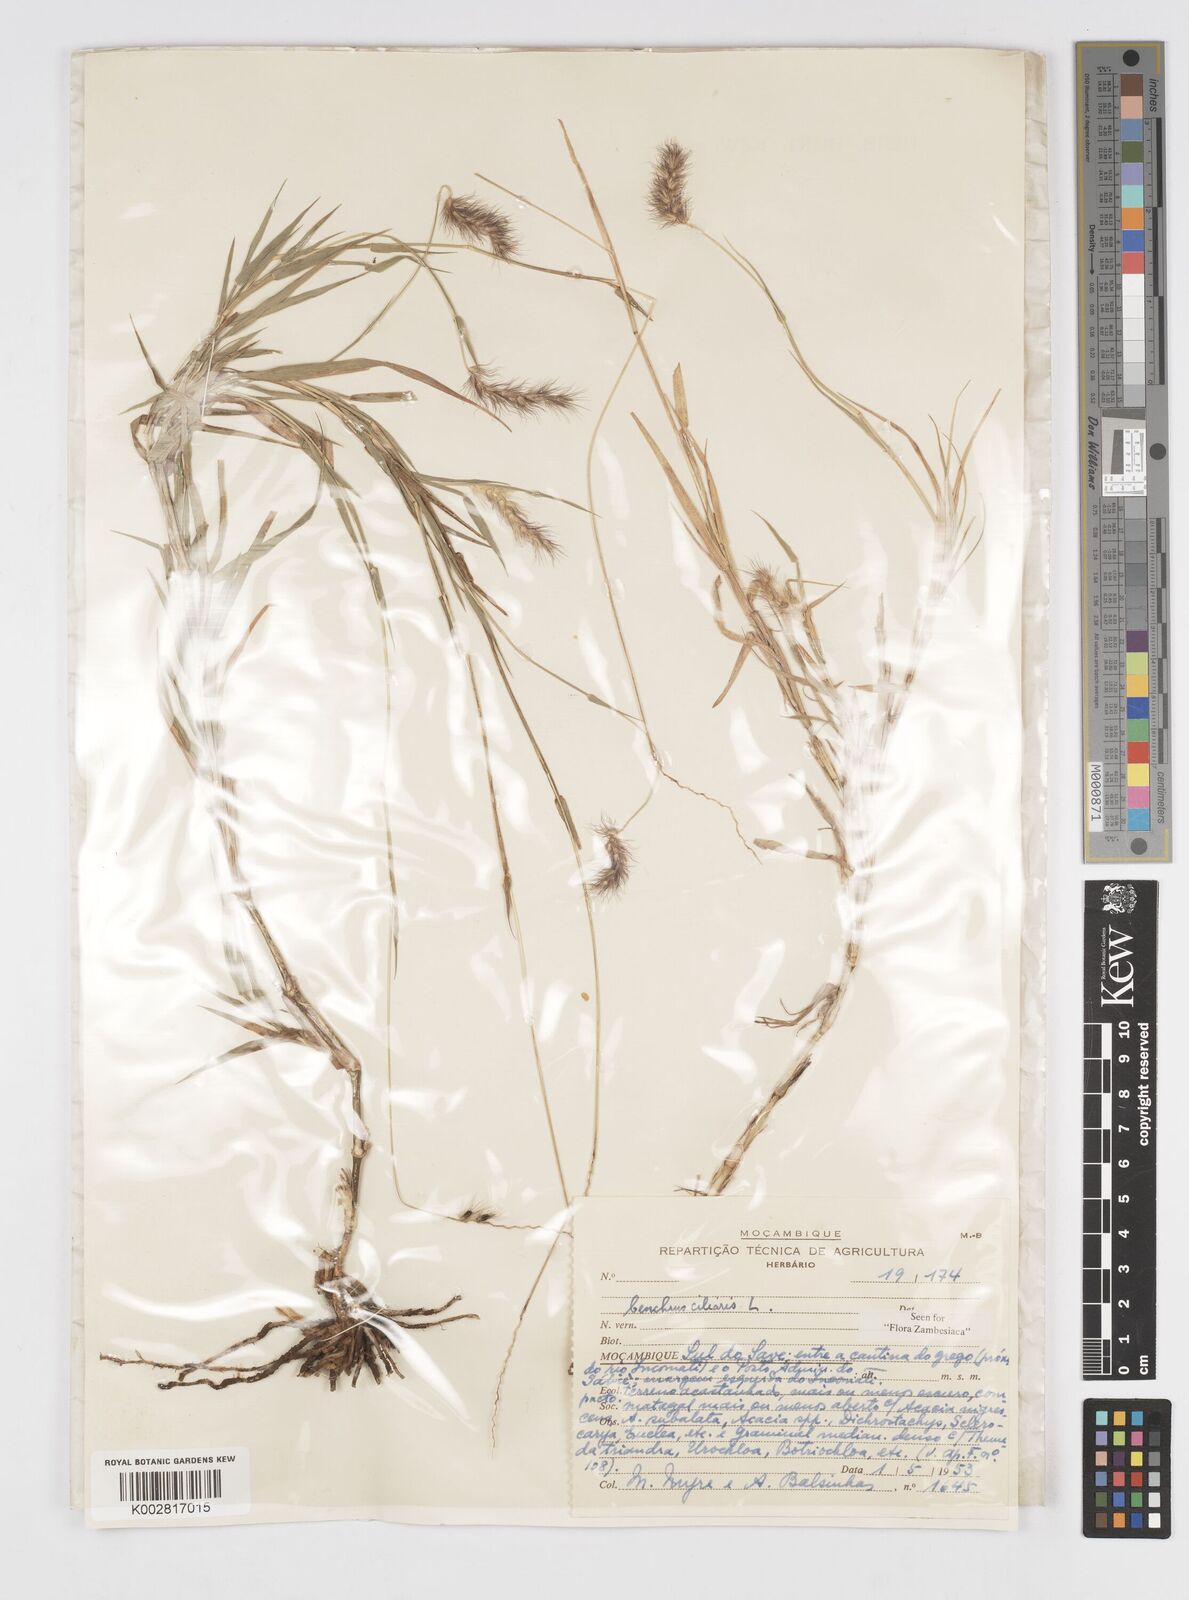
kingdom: Plantae
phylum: Tracheophyta
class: Liliopsida
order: Poales
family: Poaceae
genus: Cenchrus
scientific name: Cenchrus ciliaris
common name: Buffelgrass
